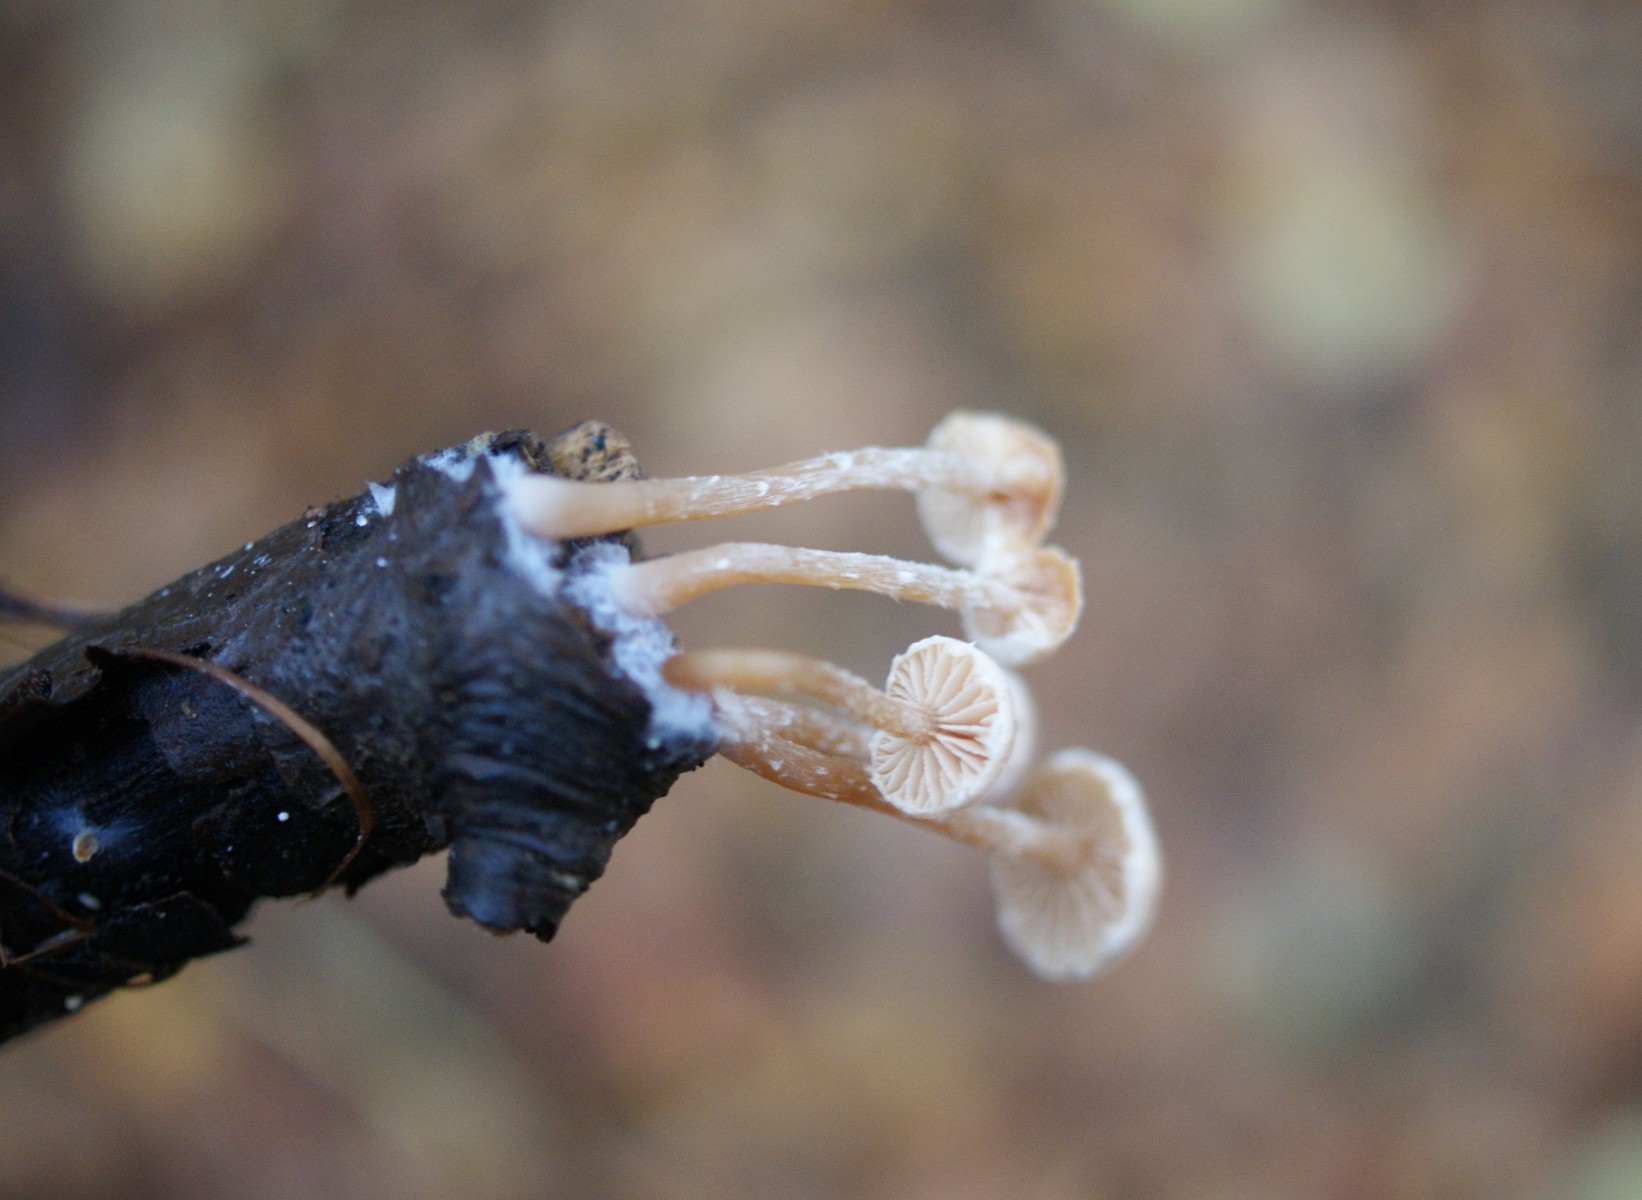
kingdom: Fungi
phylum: Basidiomycota
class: Agaricomycetes
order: Agaricales
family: Omphalotaceae
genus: Collybiopsis
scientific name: Collybiopsis ramealis
